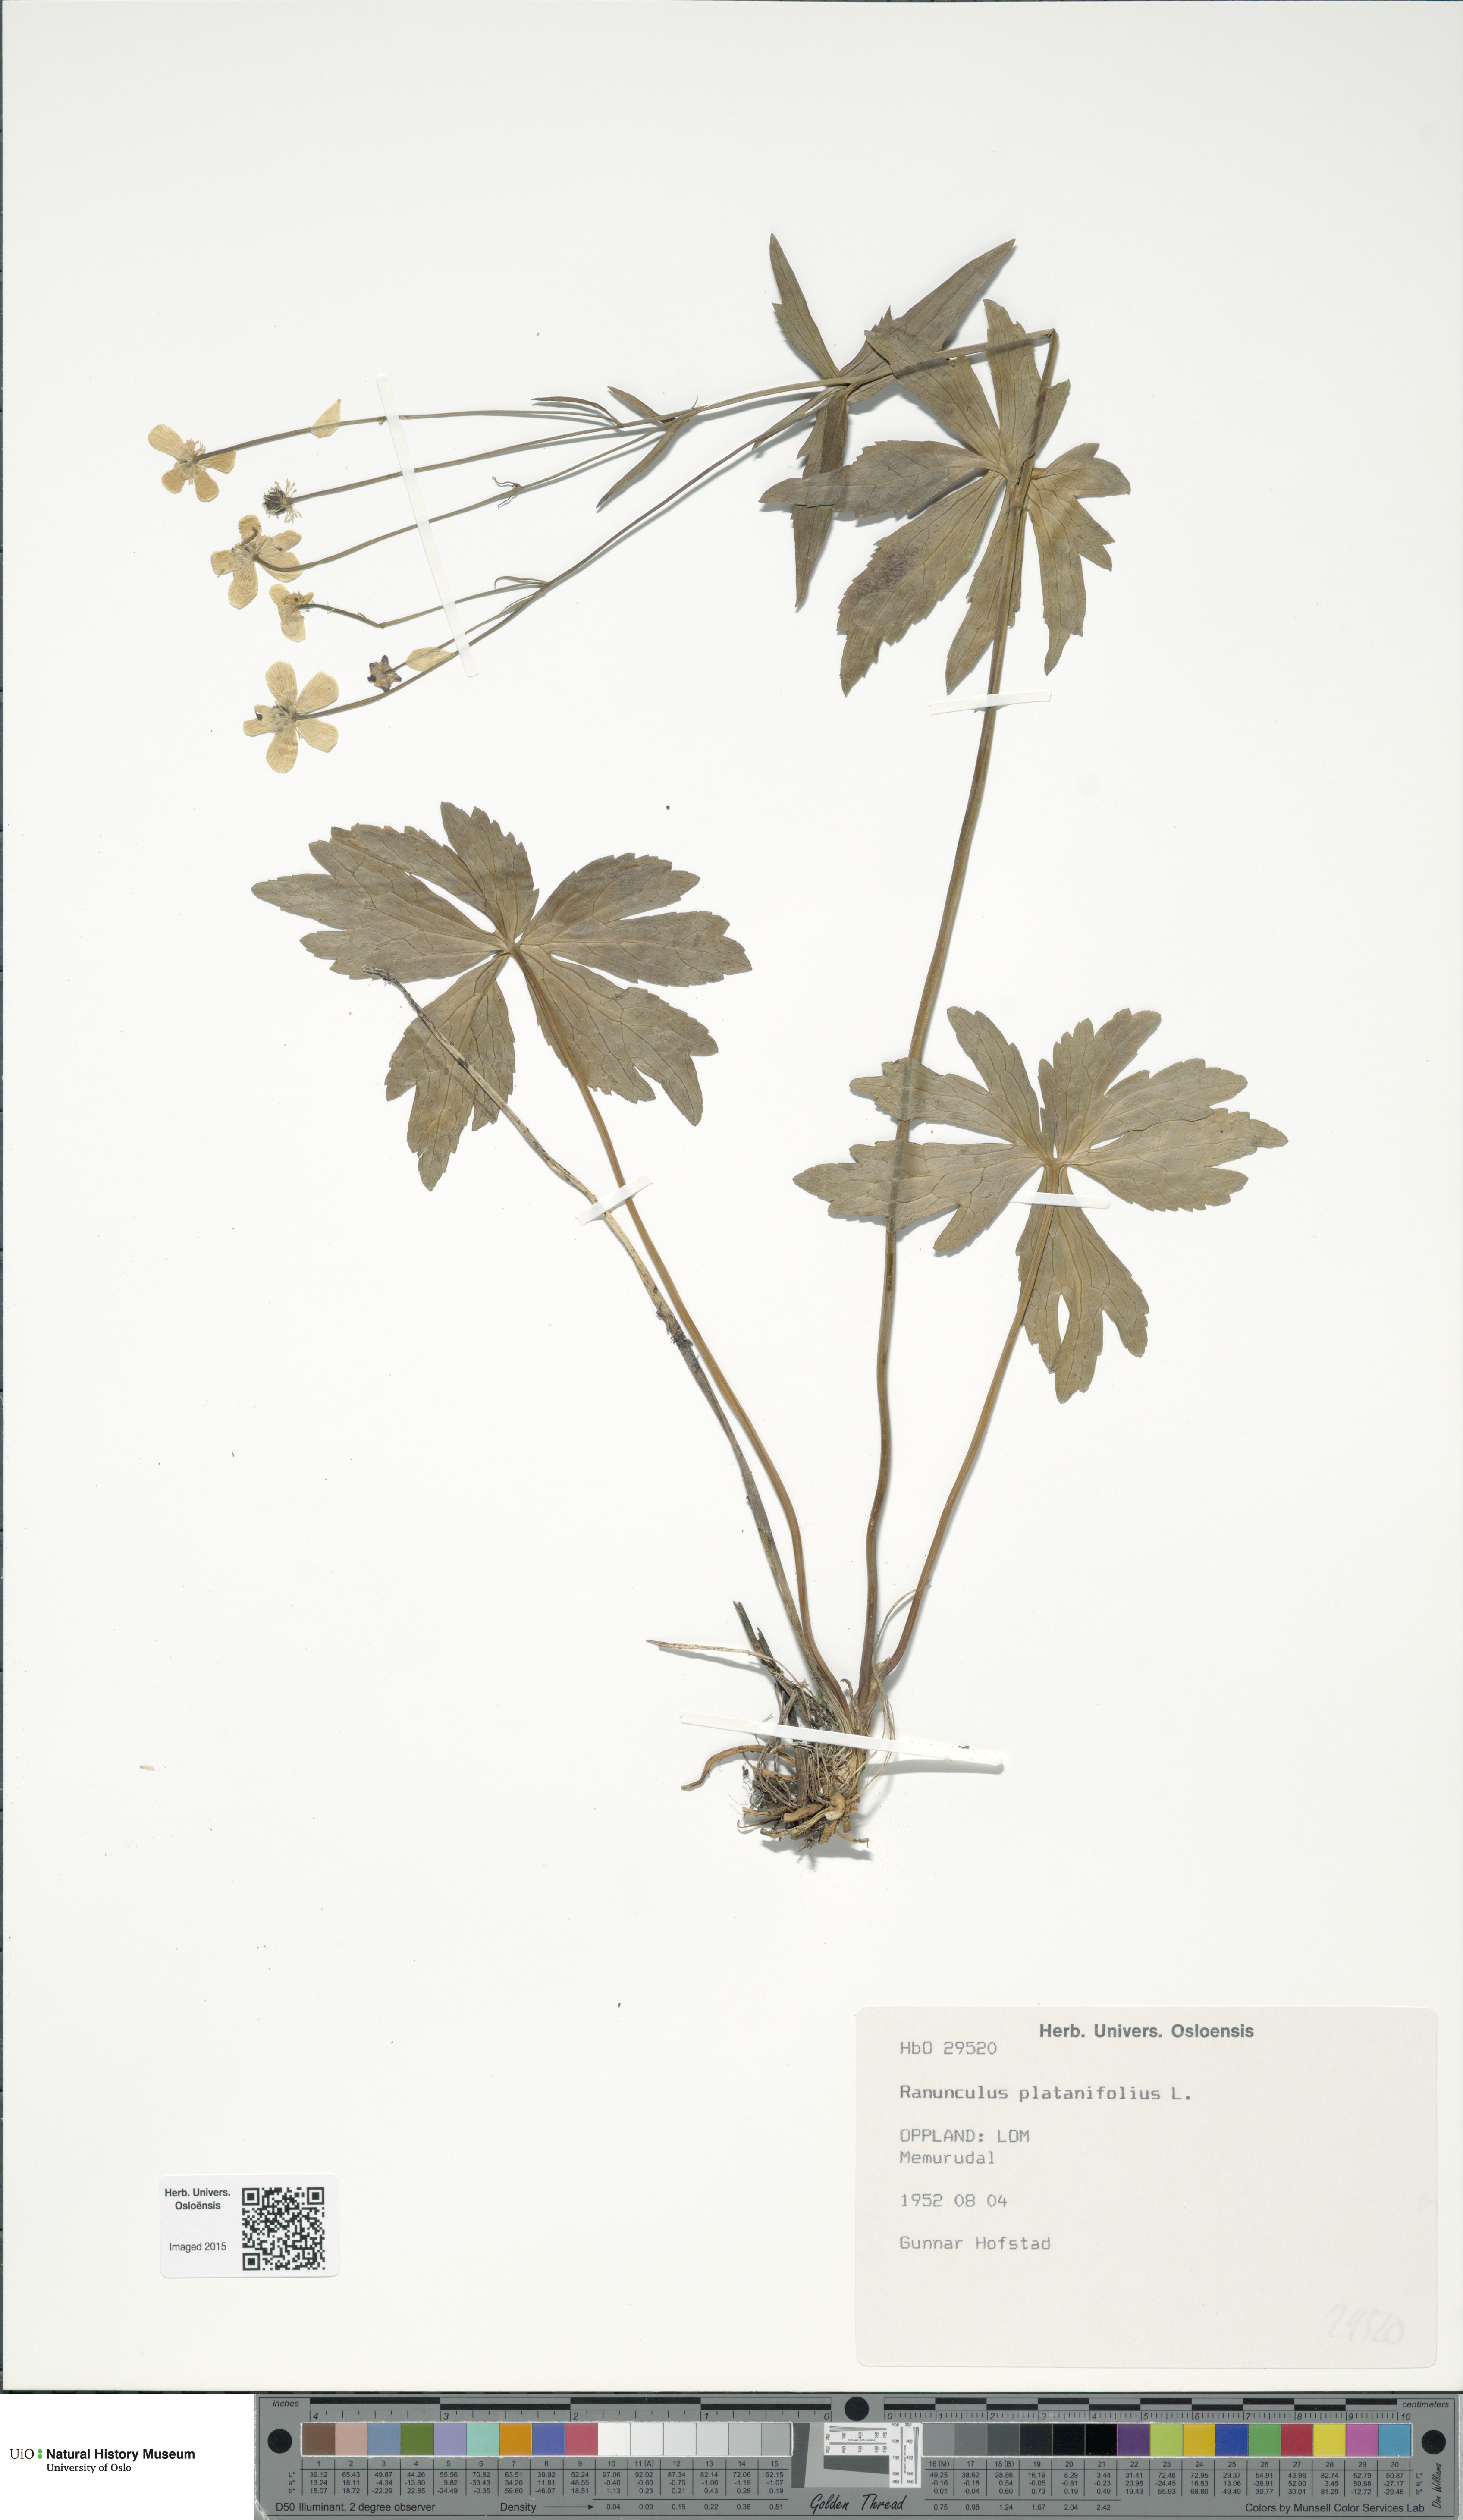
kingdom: Plantae
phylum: Tracheophyta
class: Magnoliopsida
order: Ranunculales
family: Ranunculaceae
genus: Ranunculus
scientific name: Ranunculus platanifolius
